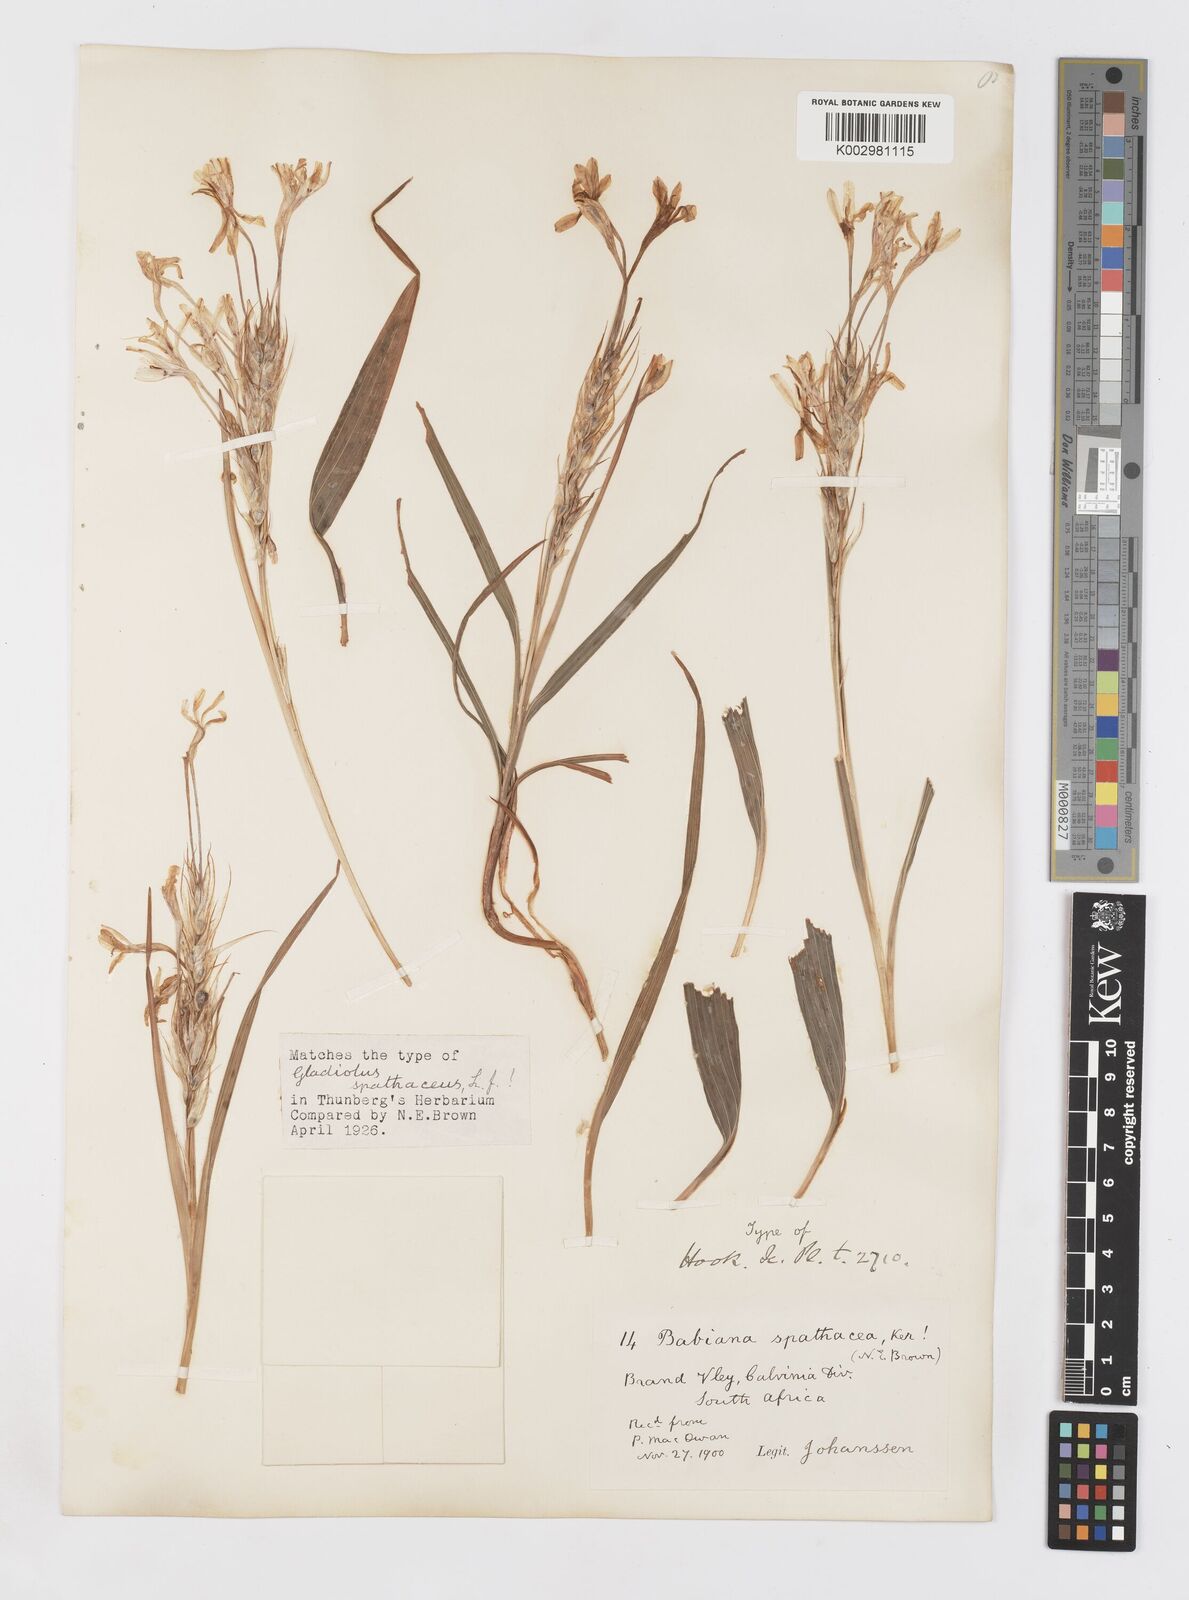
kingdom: Plantae
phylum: Tracheophyta
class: Liliopsida
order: Asparagales
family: Iridaceae
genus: Babiana
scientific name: Babiana spathacea
